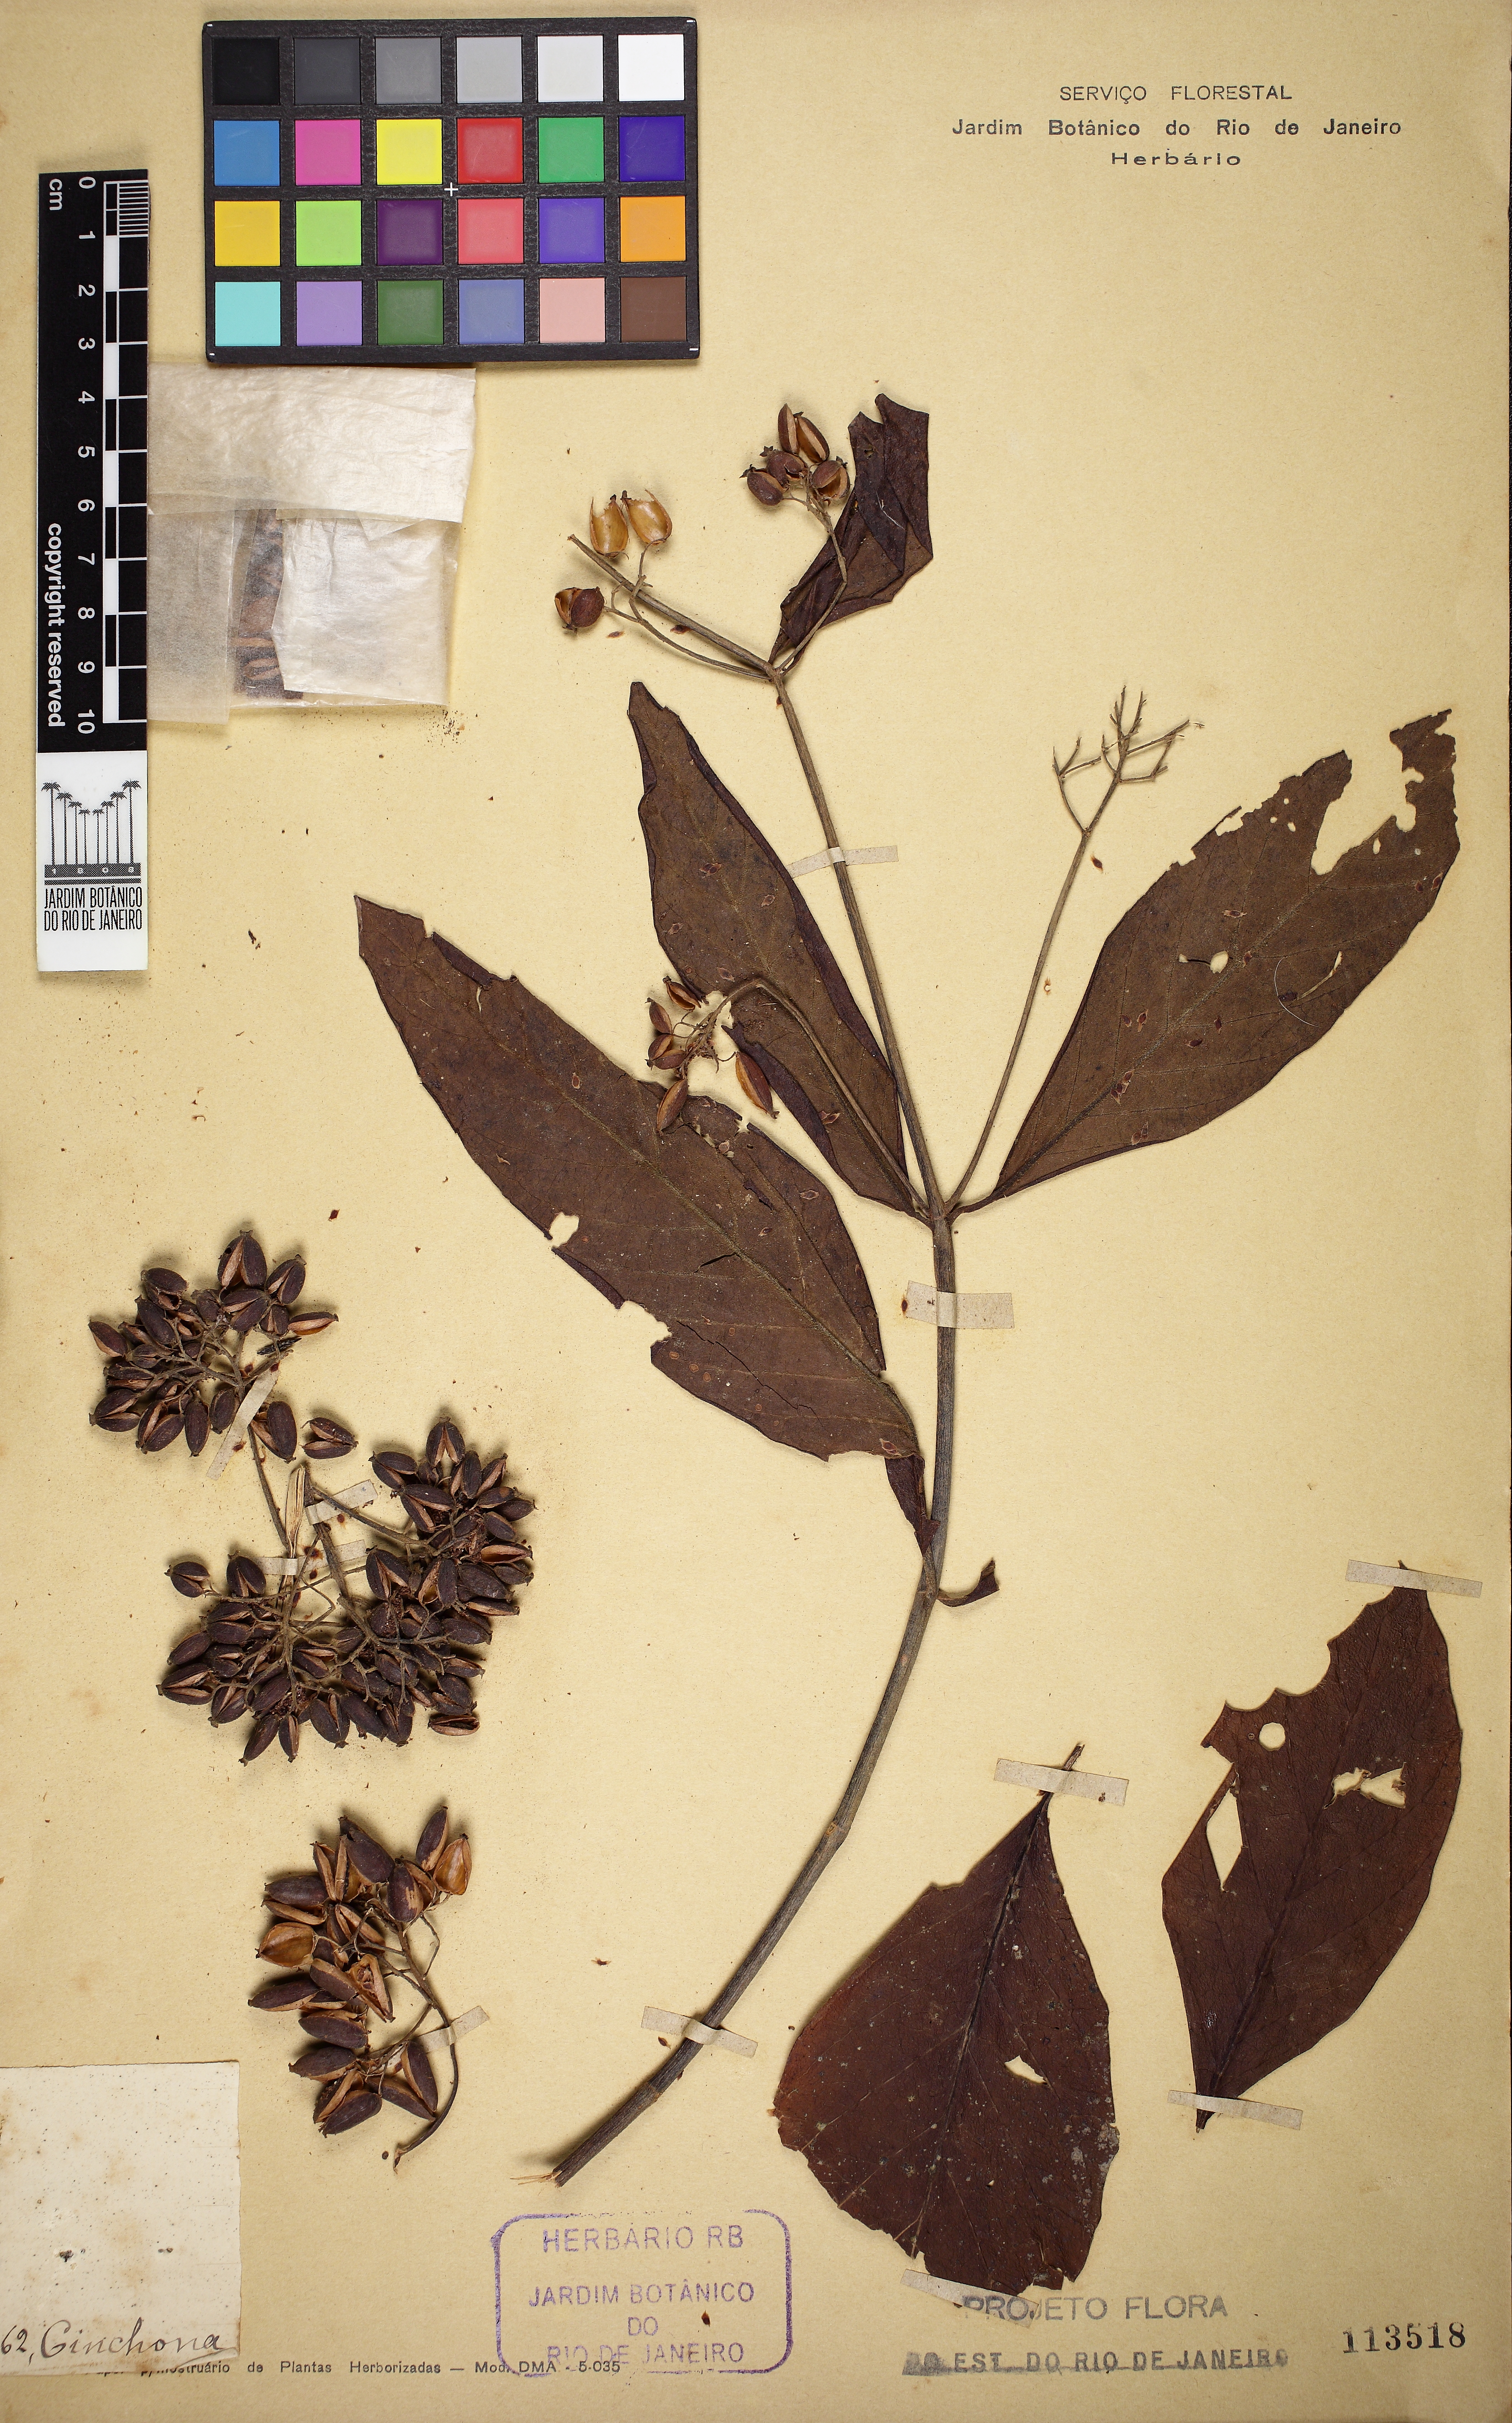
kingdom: Plantae
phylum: Tracheophyta
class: Magnoliopsida
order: Gentianales
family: Rubiaceae
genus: Cinchona
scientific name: Cinchona calisaya
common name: Ledgerbark
